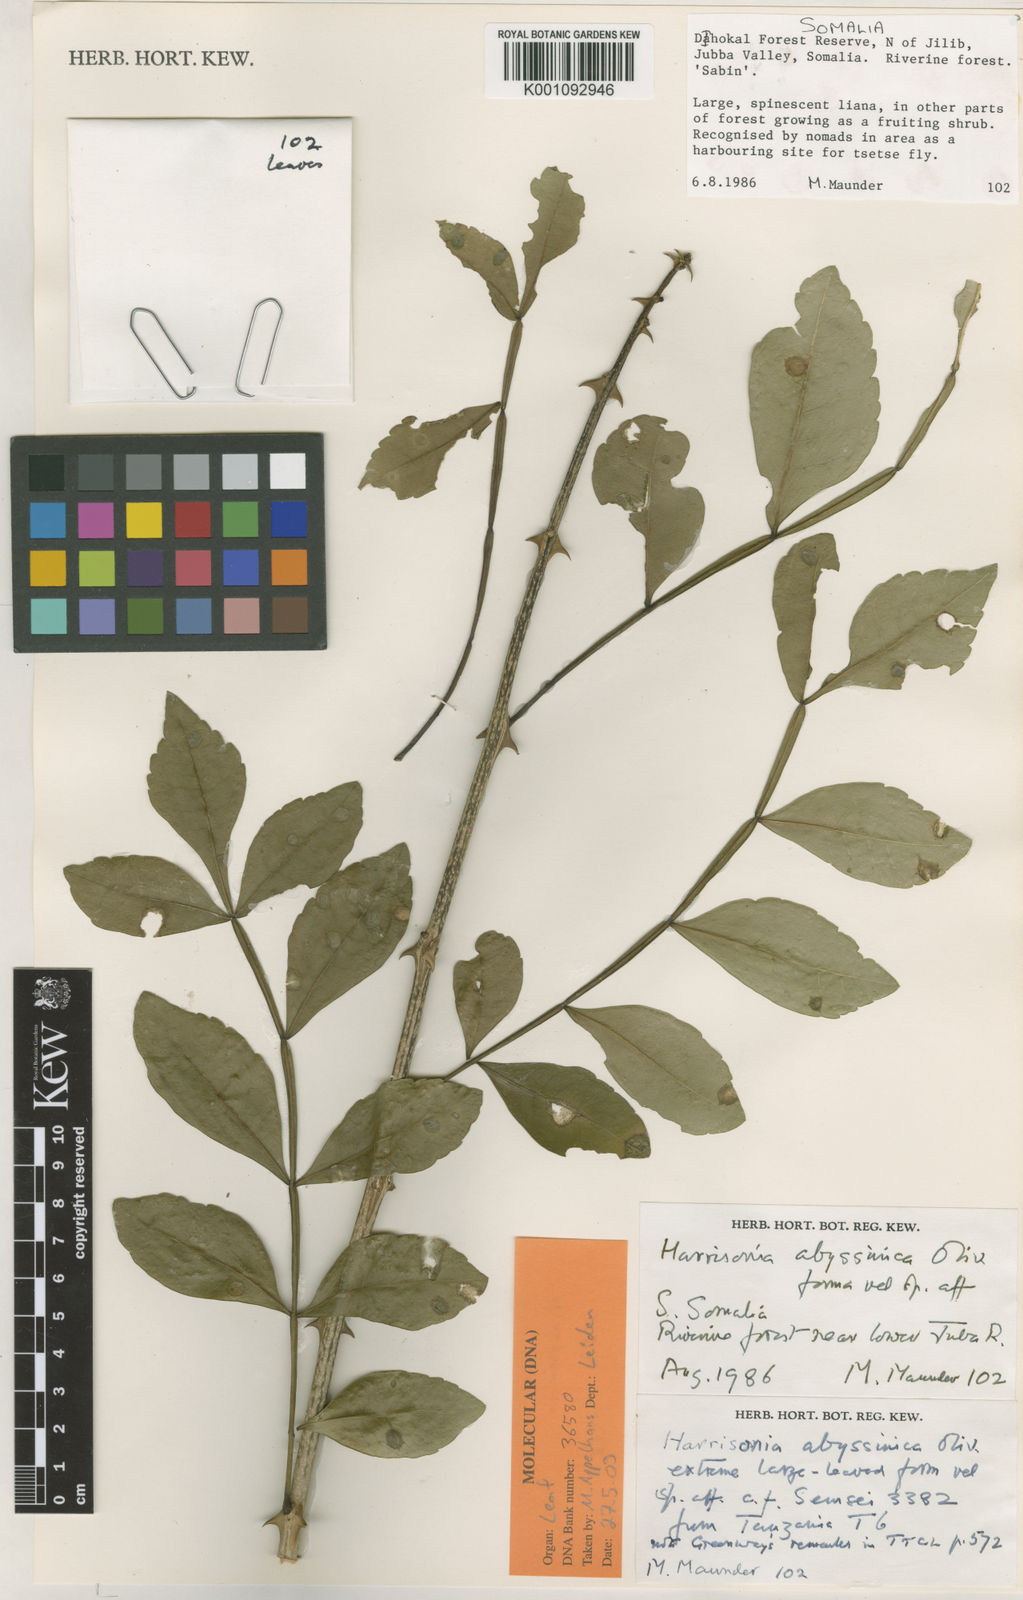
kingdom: Plantae
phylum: Tracheophyta
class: Magnoliopsida
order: Sapindales
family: Rutaceae
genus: Harrisonia
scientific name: Harrisonia abyssinica
